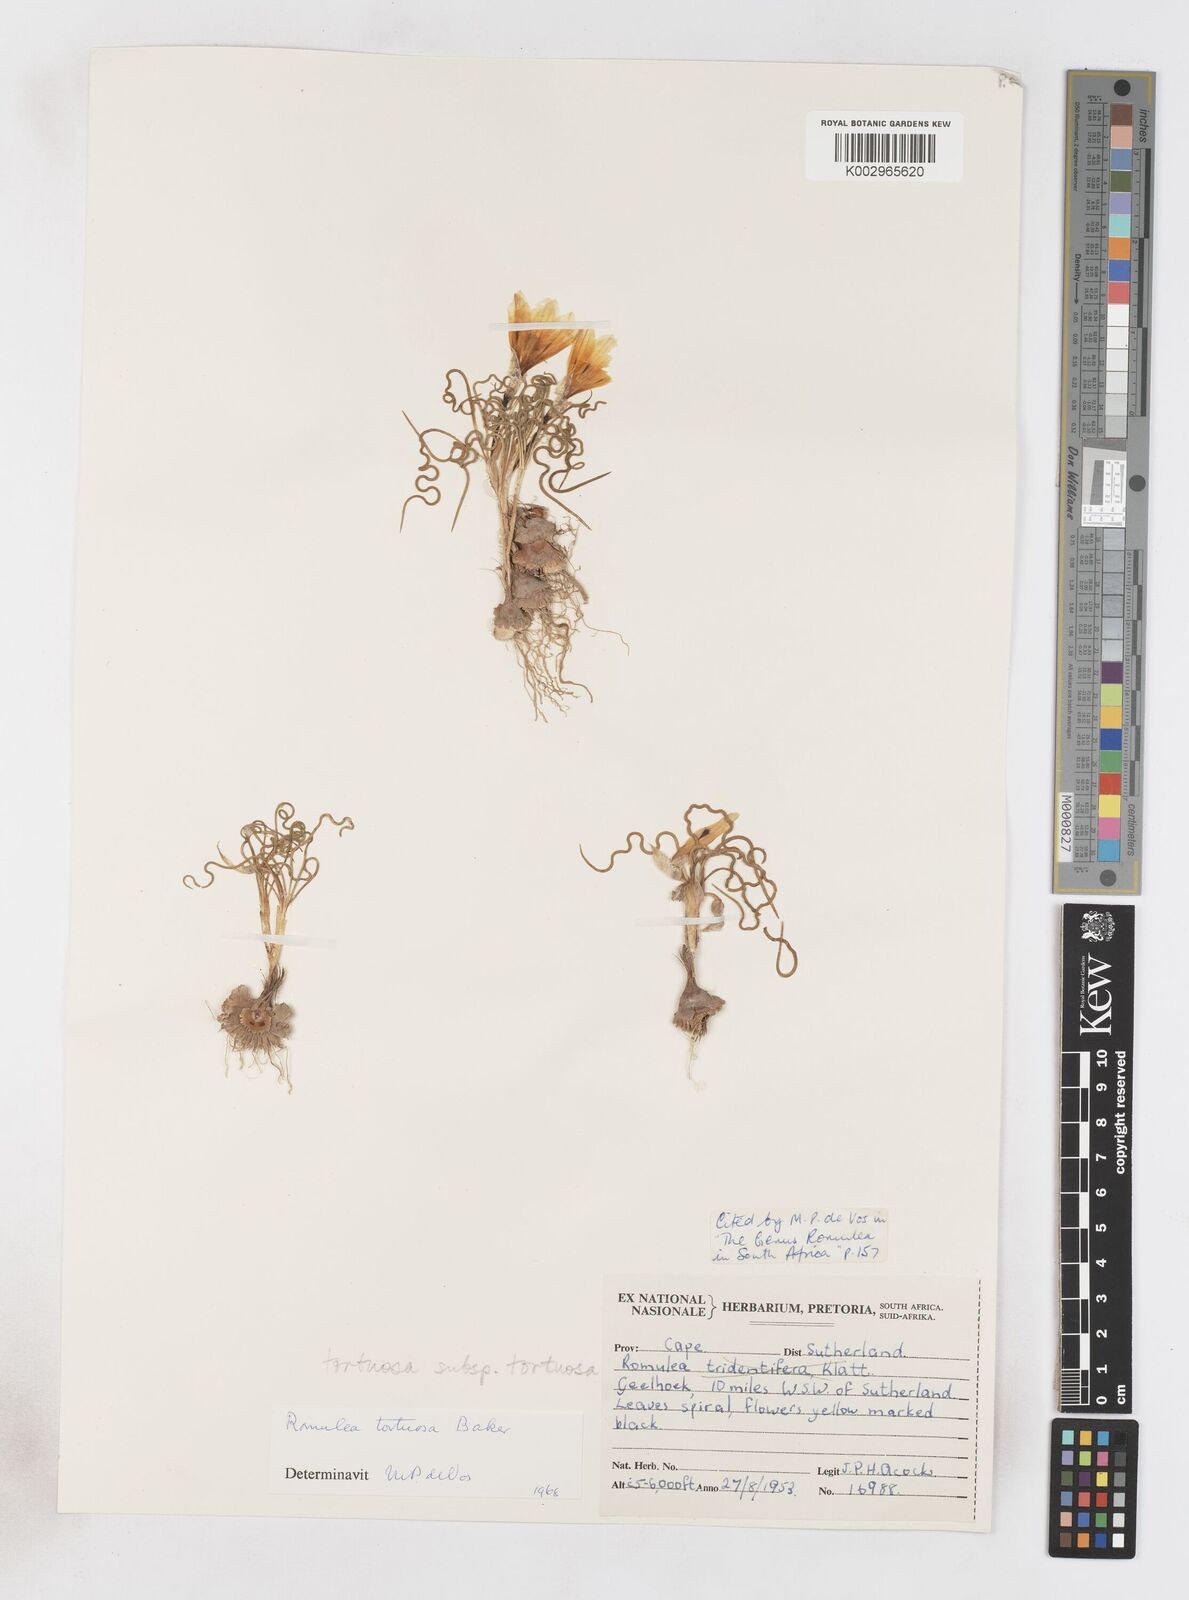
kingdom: Plantae
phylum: Tracheophyta
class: Liliopsida
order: Asparagales
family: Iridaceae
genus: Romulea
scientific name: Romulea tortuosa
